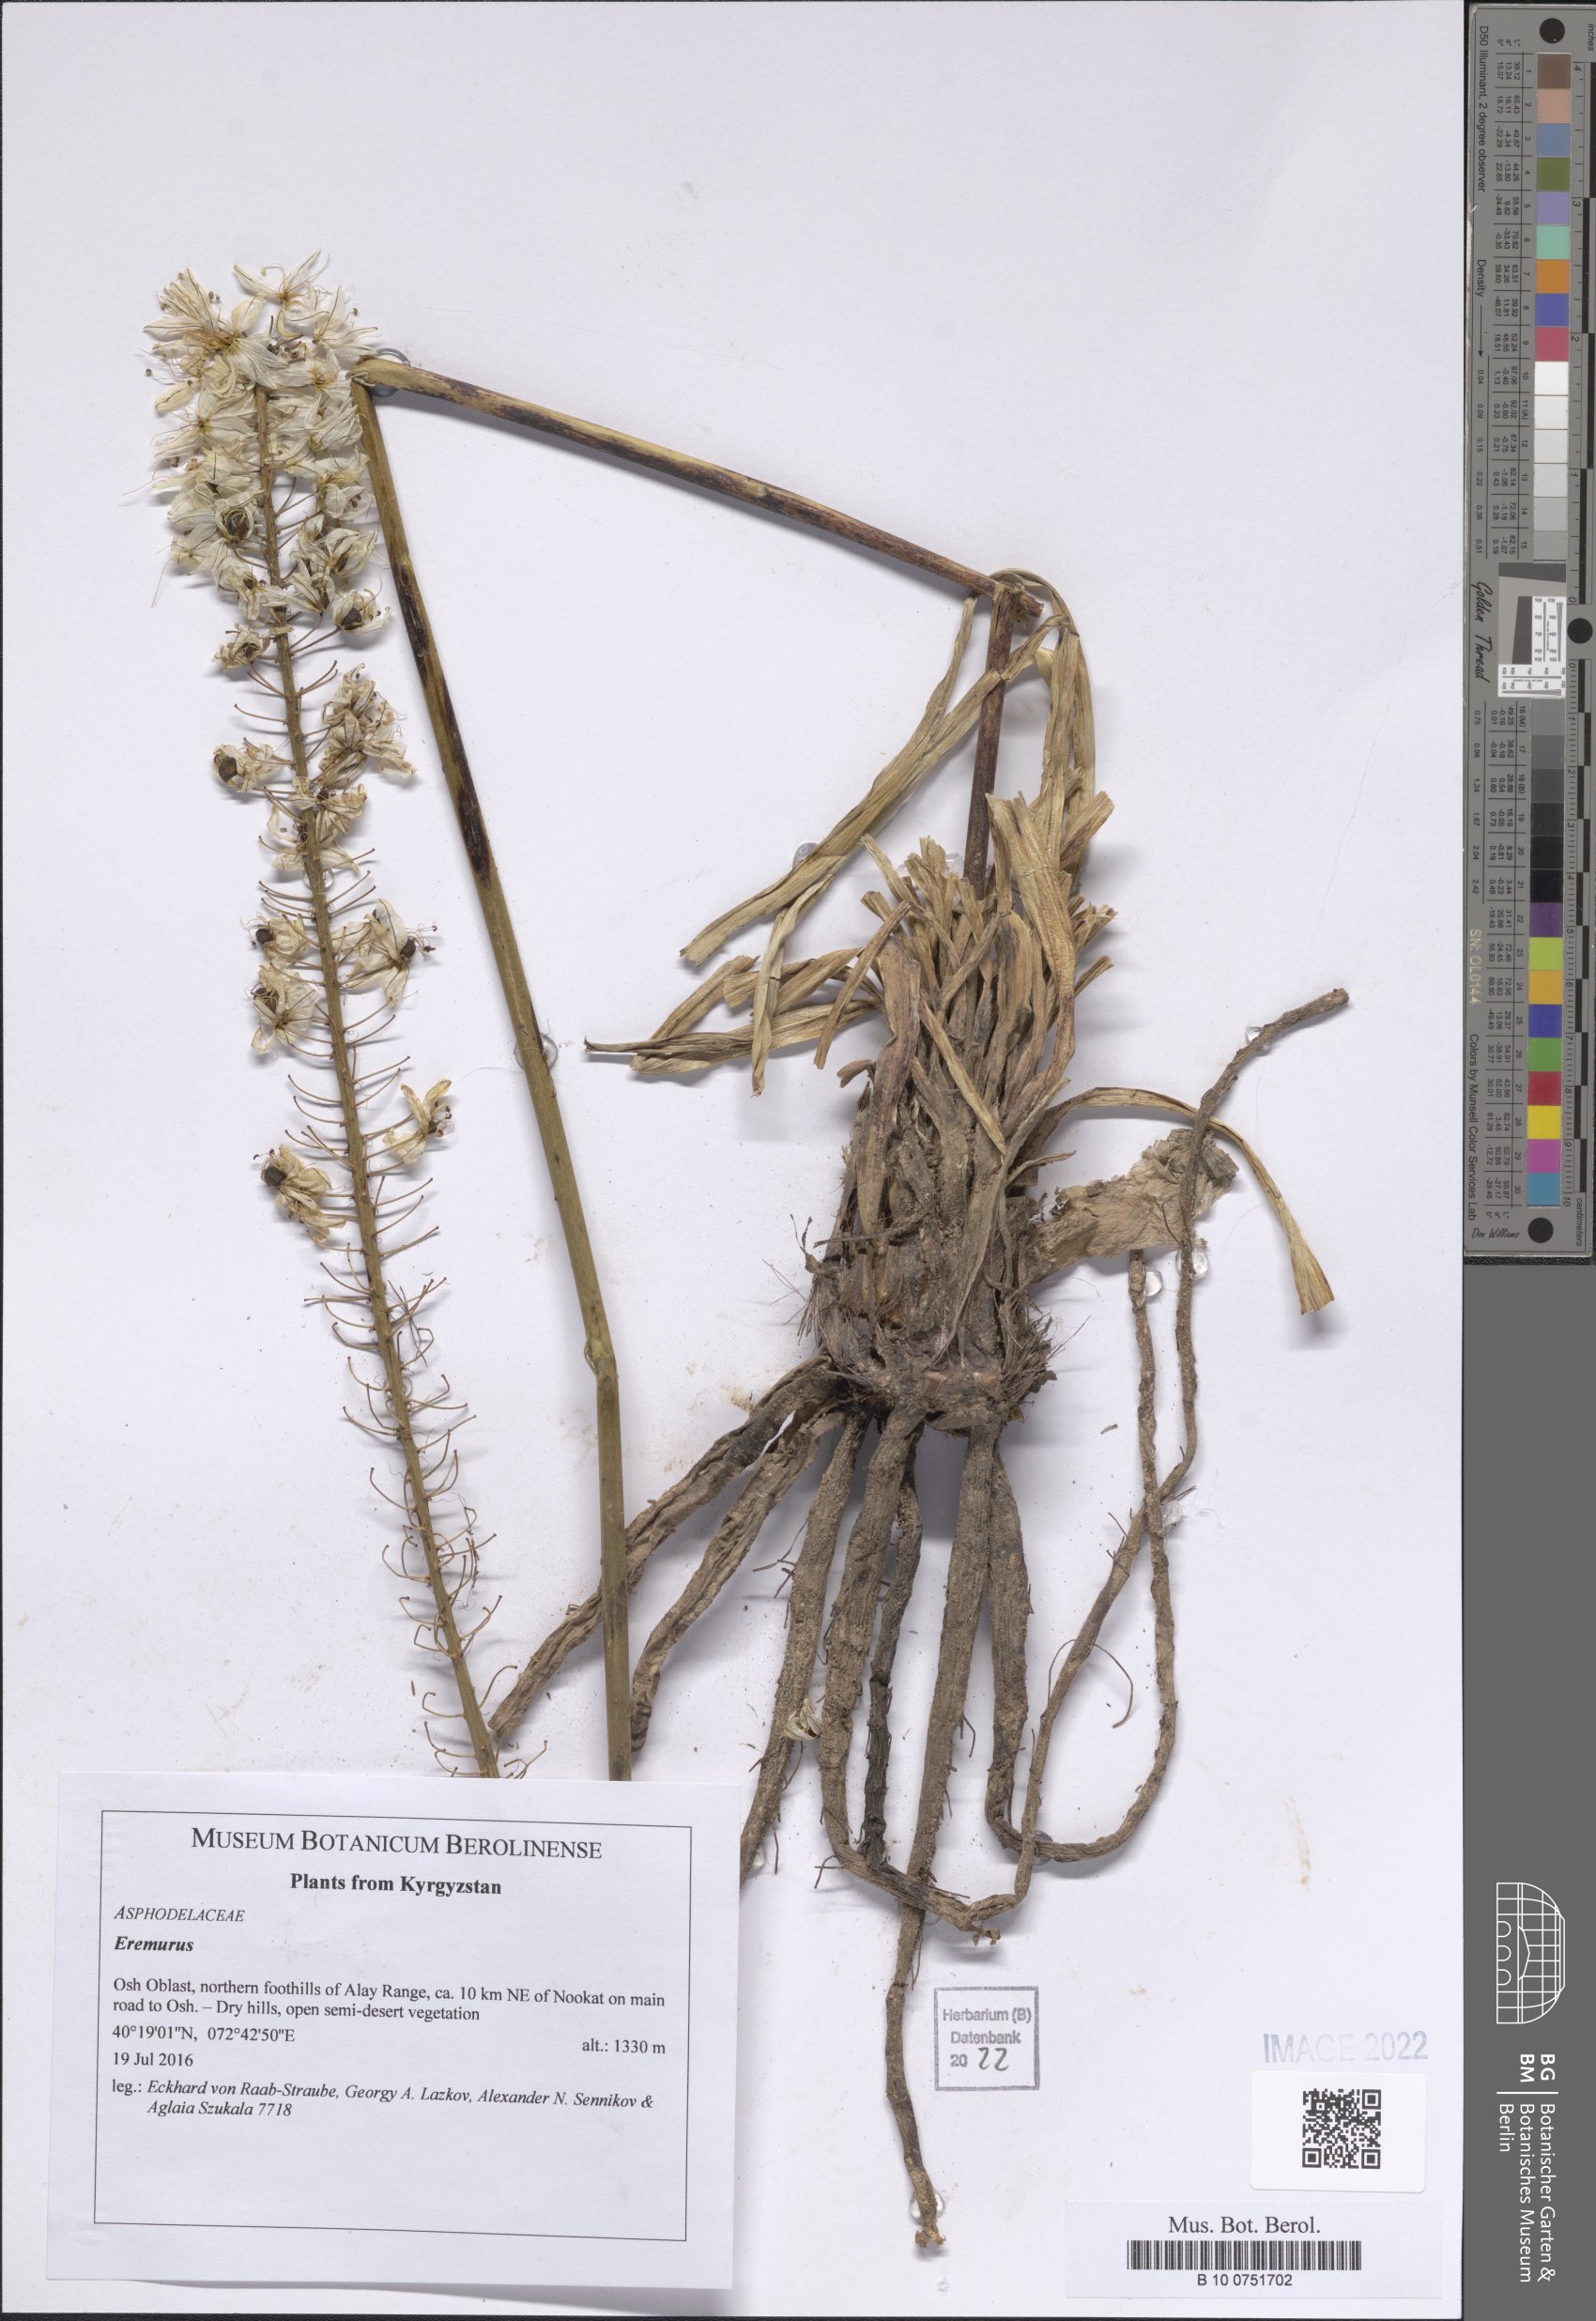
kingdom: Plantae
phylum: Tracheophyta
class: Liliopsida
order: Asparagales
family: Asphodelaceae
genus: Eremurus
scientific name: Eremurus
